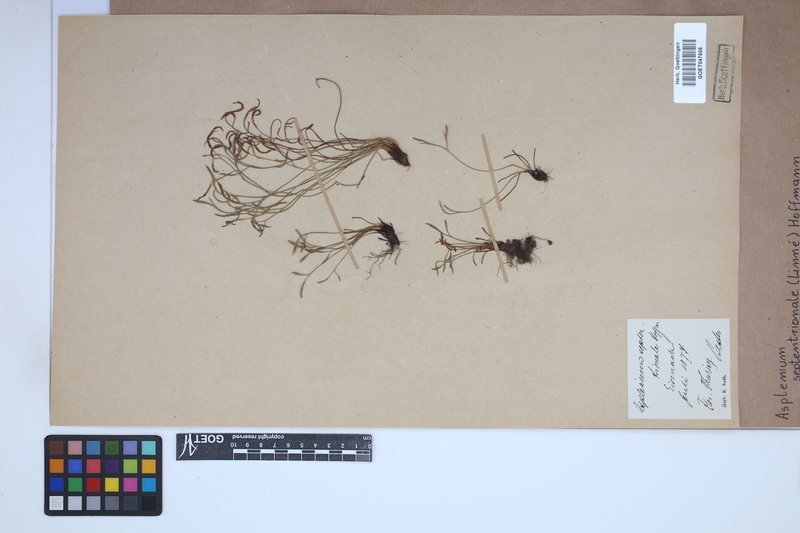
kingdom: Plantae
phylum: Tracheophyta
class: Polypodiopsida
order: Polypodiales
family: Aspleniaceae
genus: Asplenium
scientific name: Asplenium septentrionale
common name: Forked spleenwort
